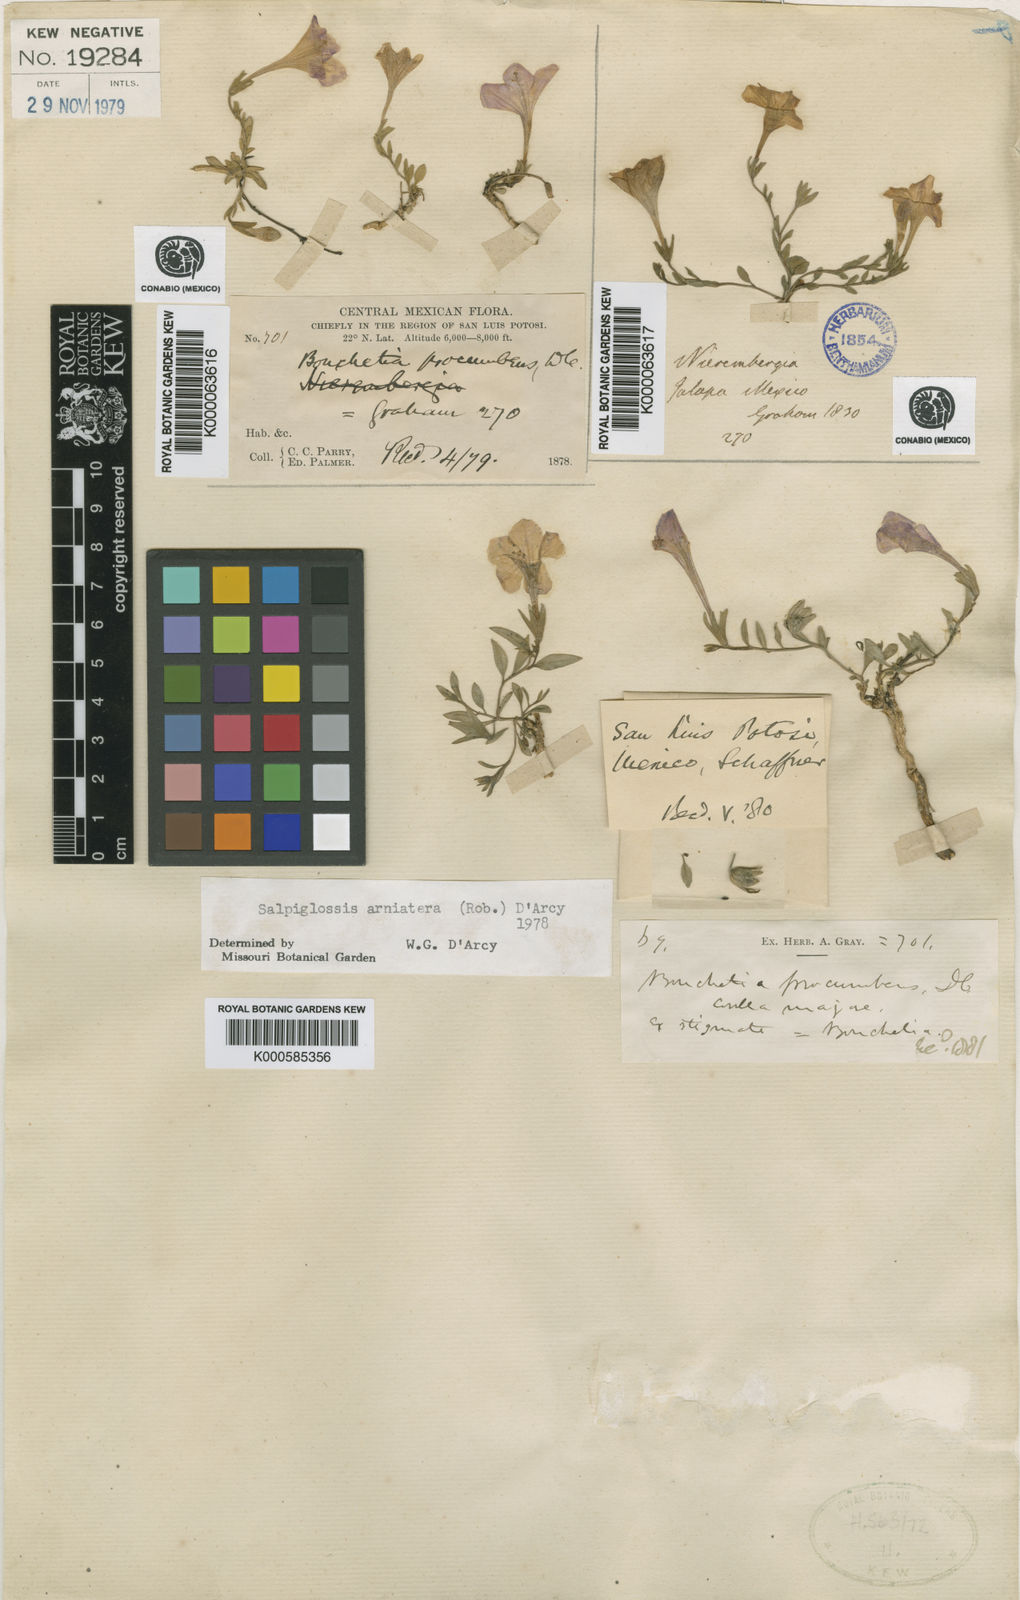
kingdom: Plantae
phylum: Tracheophyta
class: Magnoliopsida
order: Solanales
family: Solanaceae
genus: Salpiglossis
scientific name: Salpiglossis arniatera
